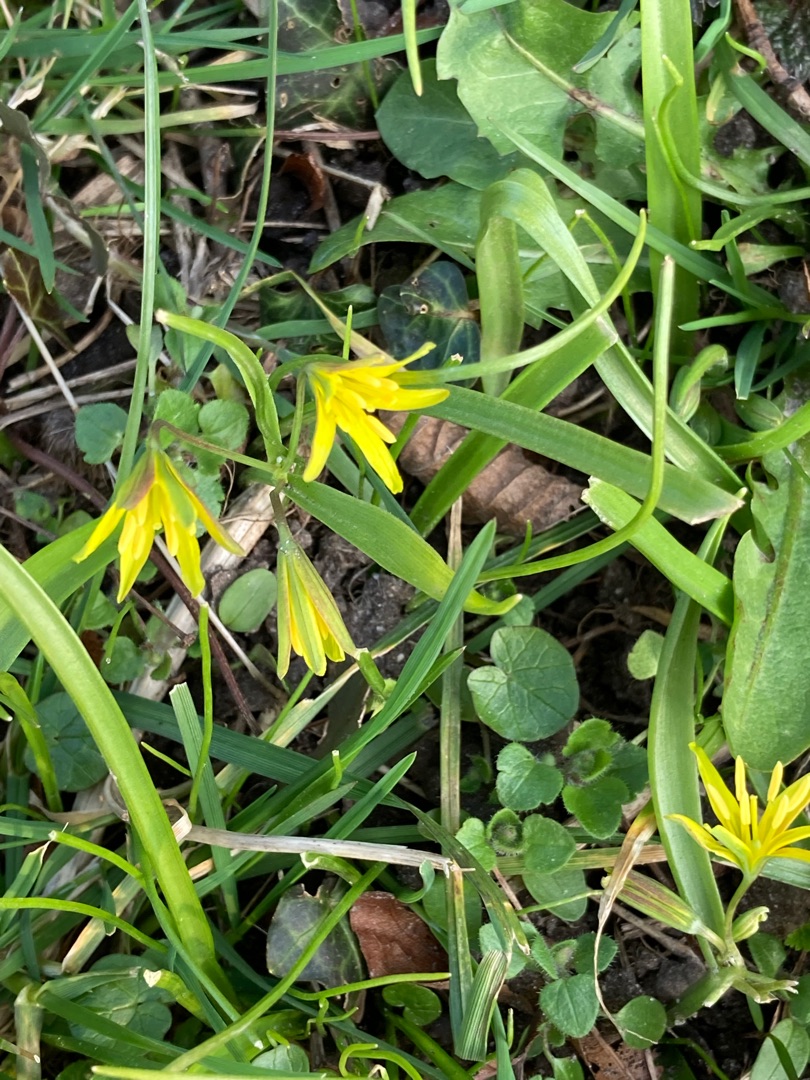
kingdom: Plantae
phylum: Tracheophyta
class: Liliopsida
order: Liliales
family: Liliaceae
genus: Gagea
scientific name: Gagea lutea
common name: Almindelig guldstjerne
